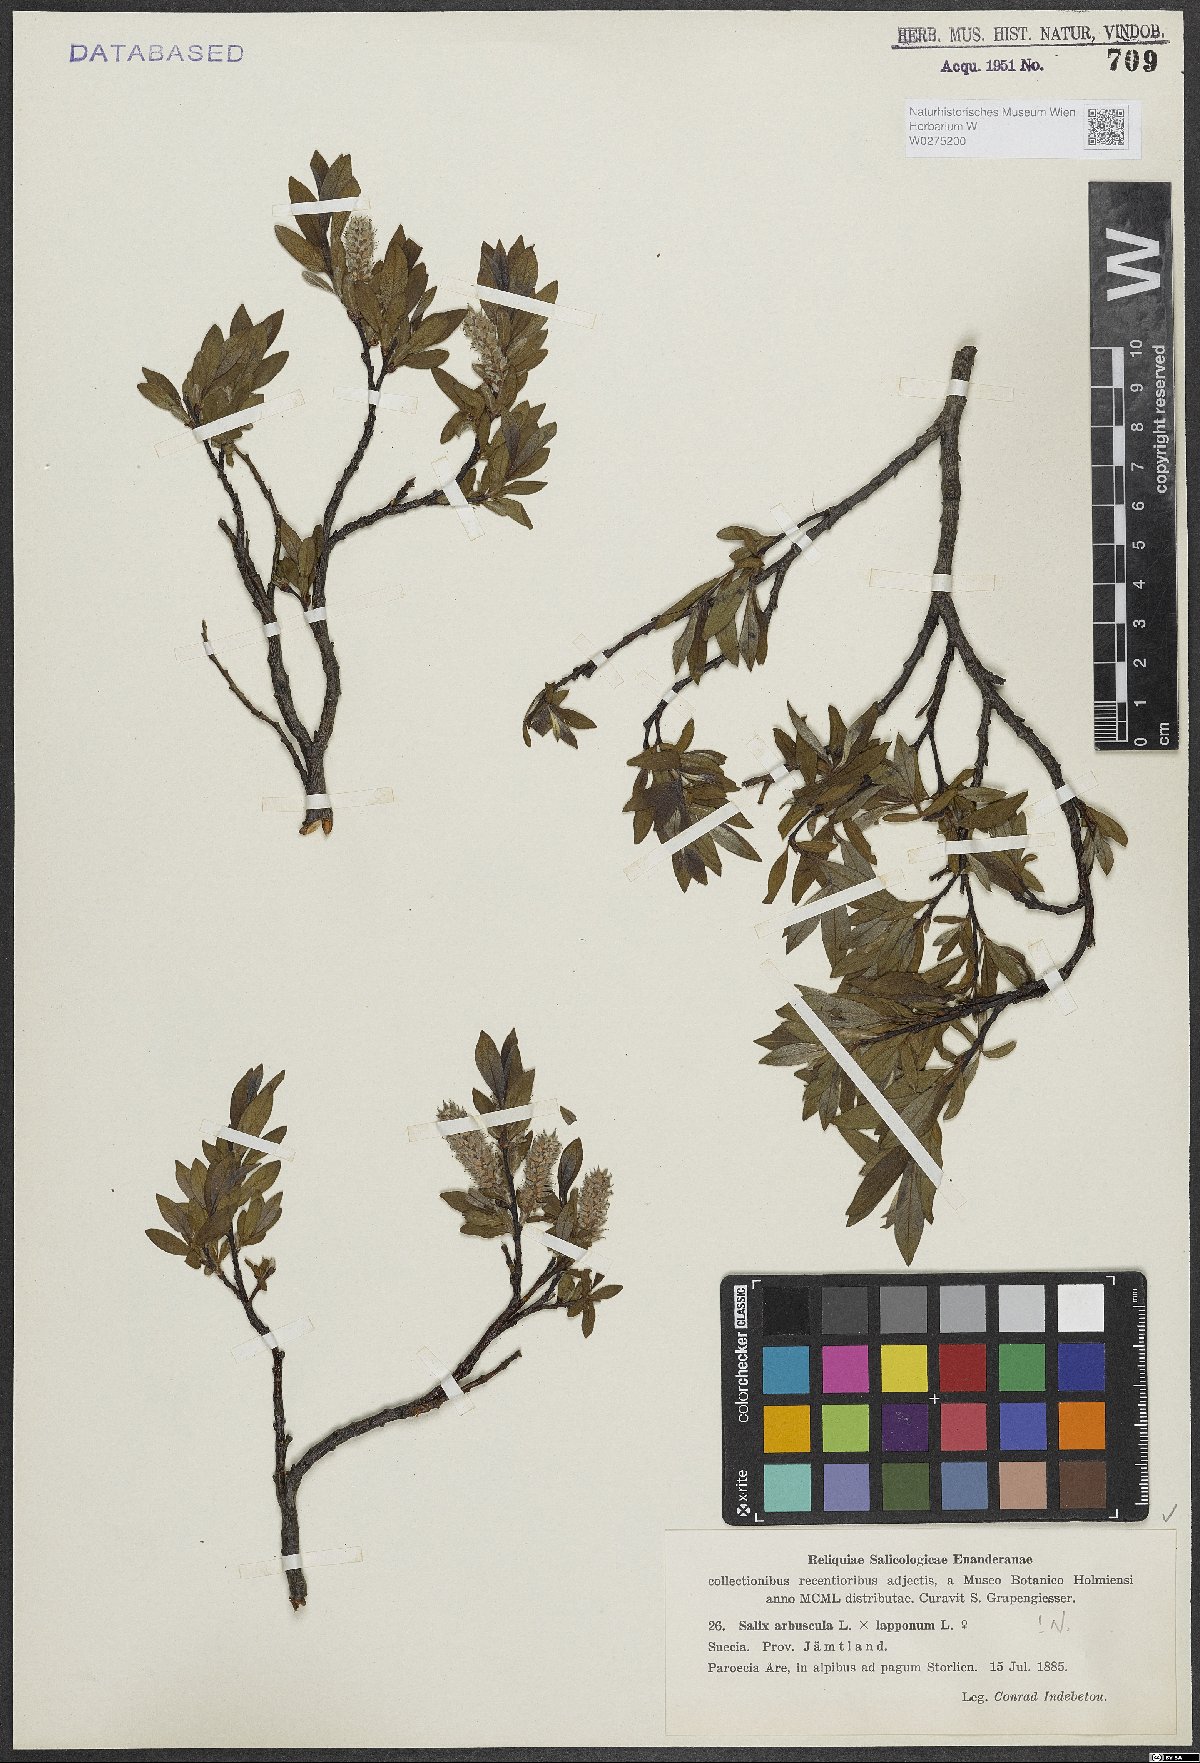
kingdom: Plantae
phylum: Tracheophyta
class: Magnoliopsida
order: Malpighiales
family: Salicaceae
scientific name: Salicaceae
